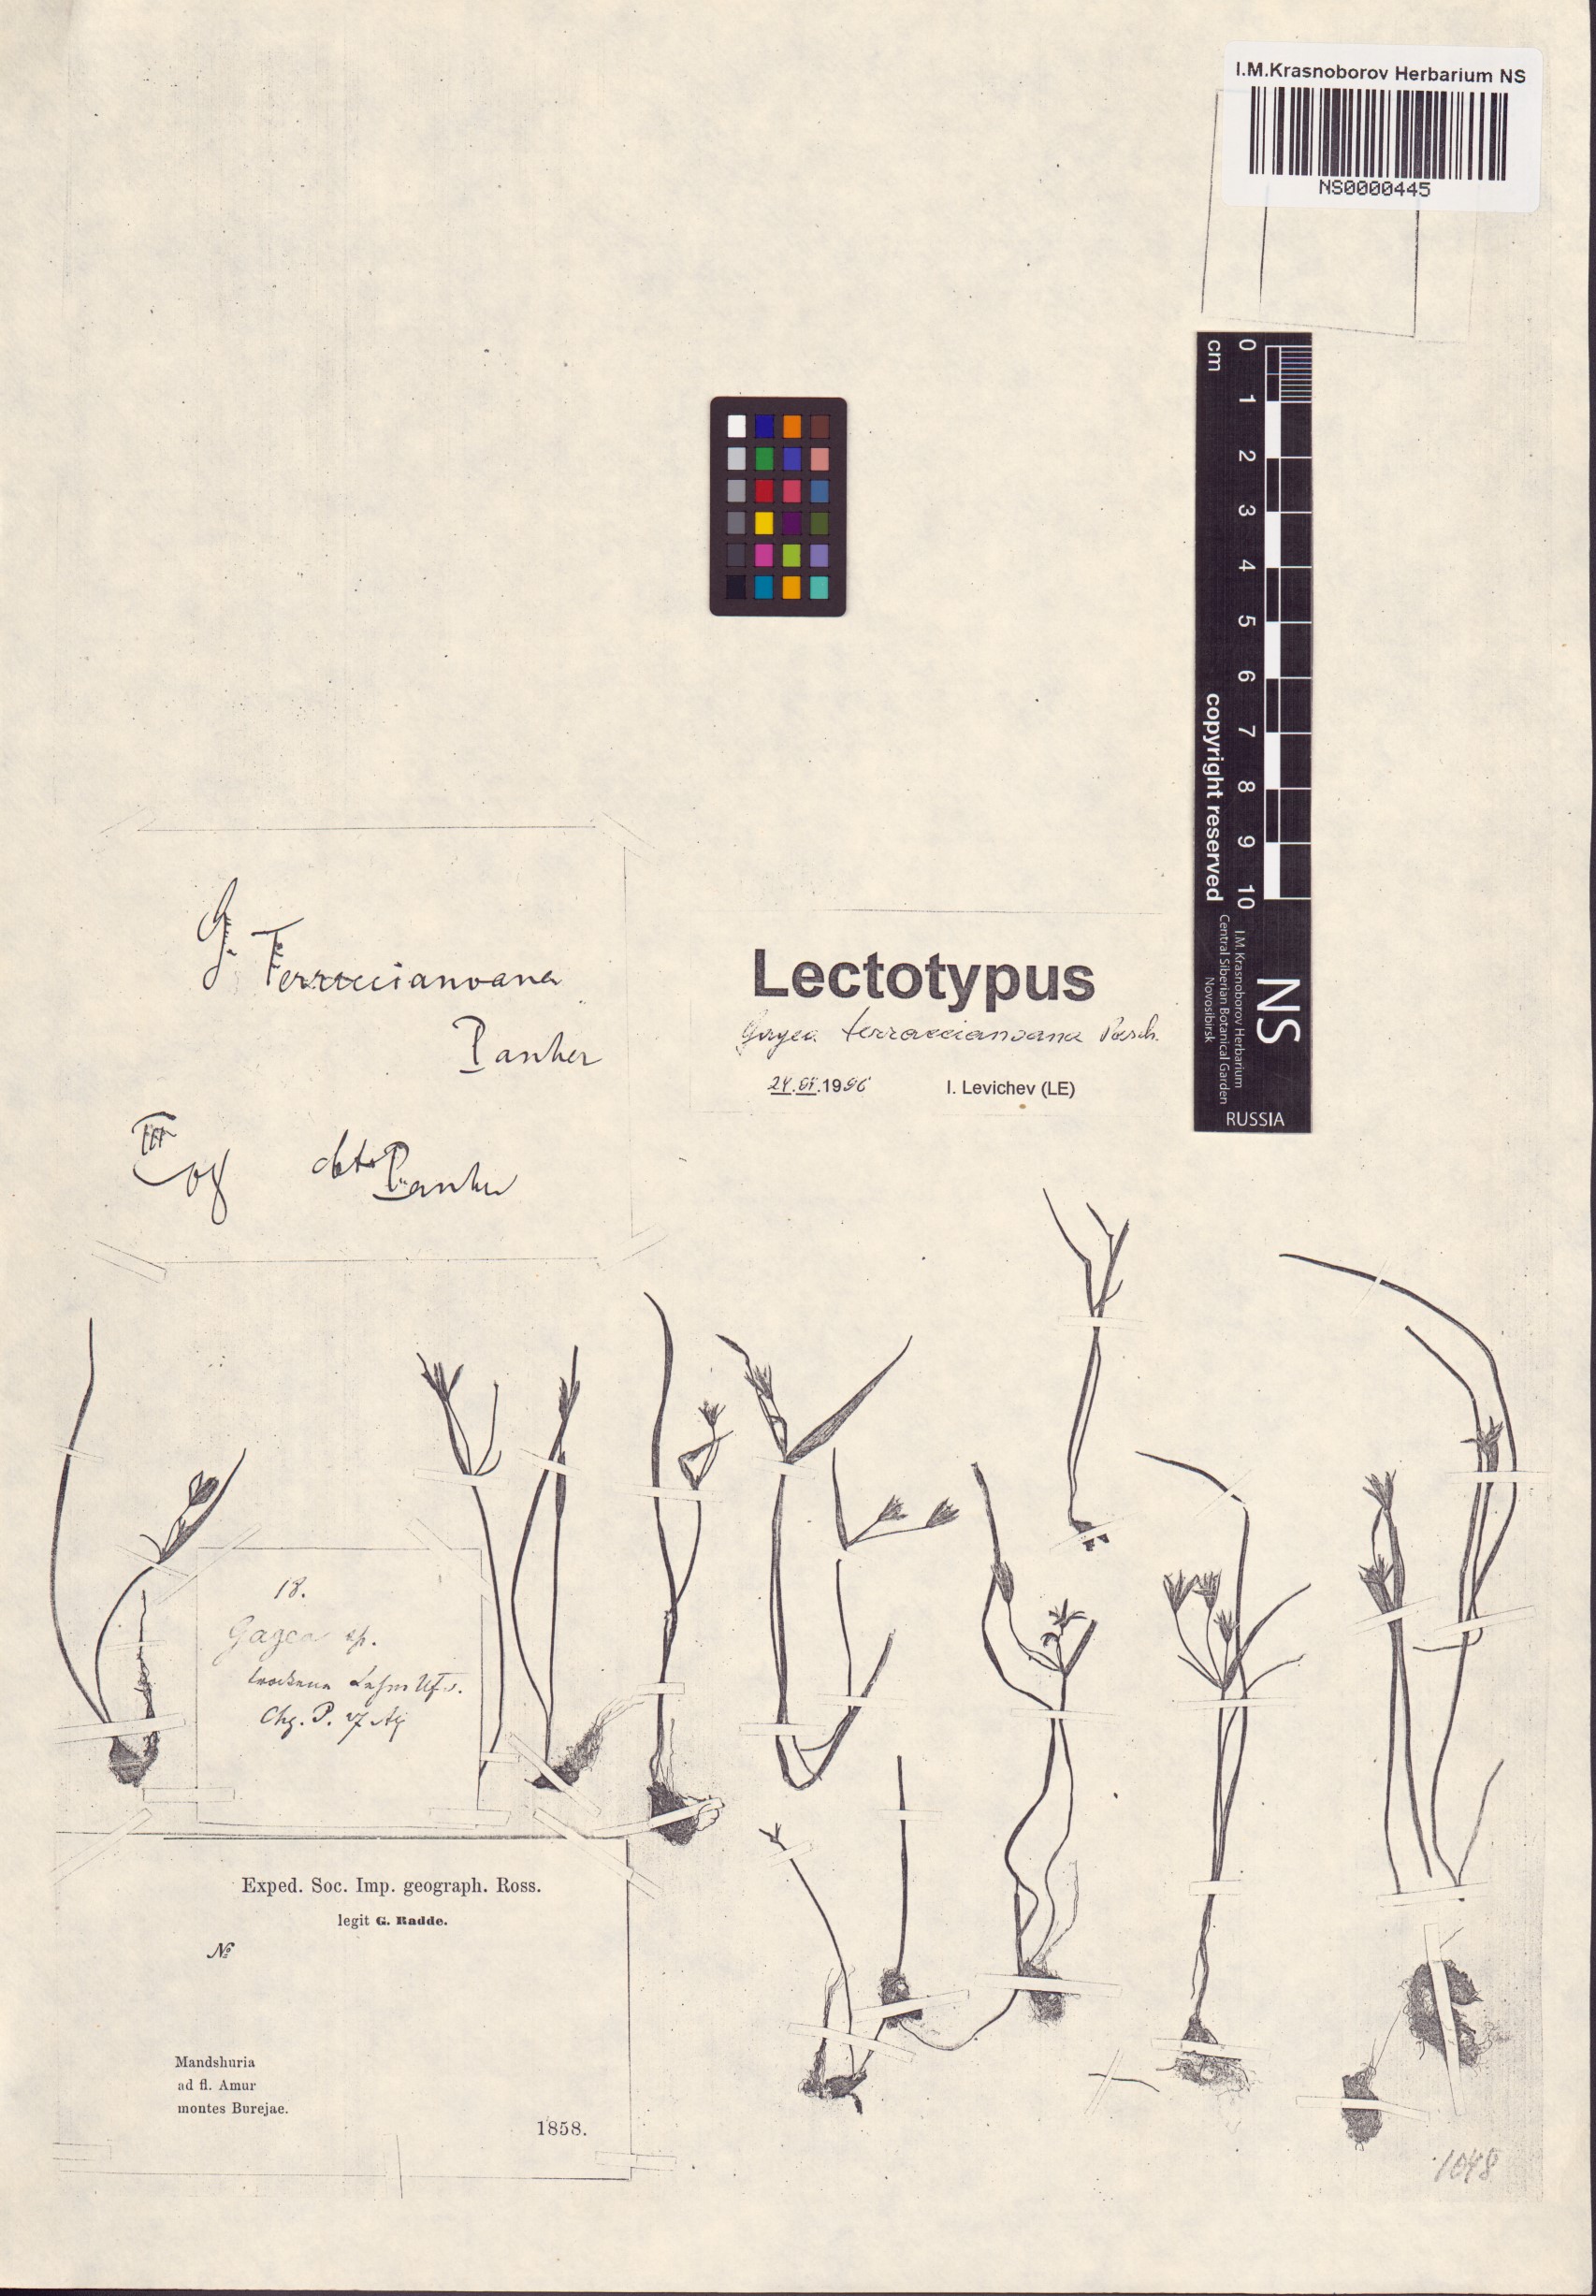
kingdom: Plantae
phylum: Tracheophyta
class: Liliopsida
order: Liliales
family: Liliaceae
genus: Gagea
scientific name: Gagea hiensis
